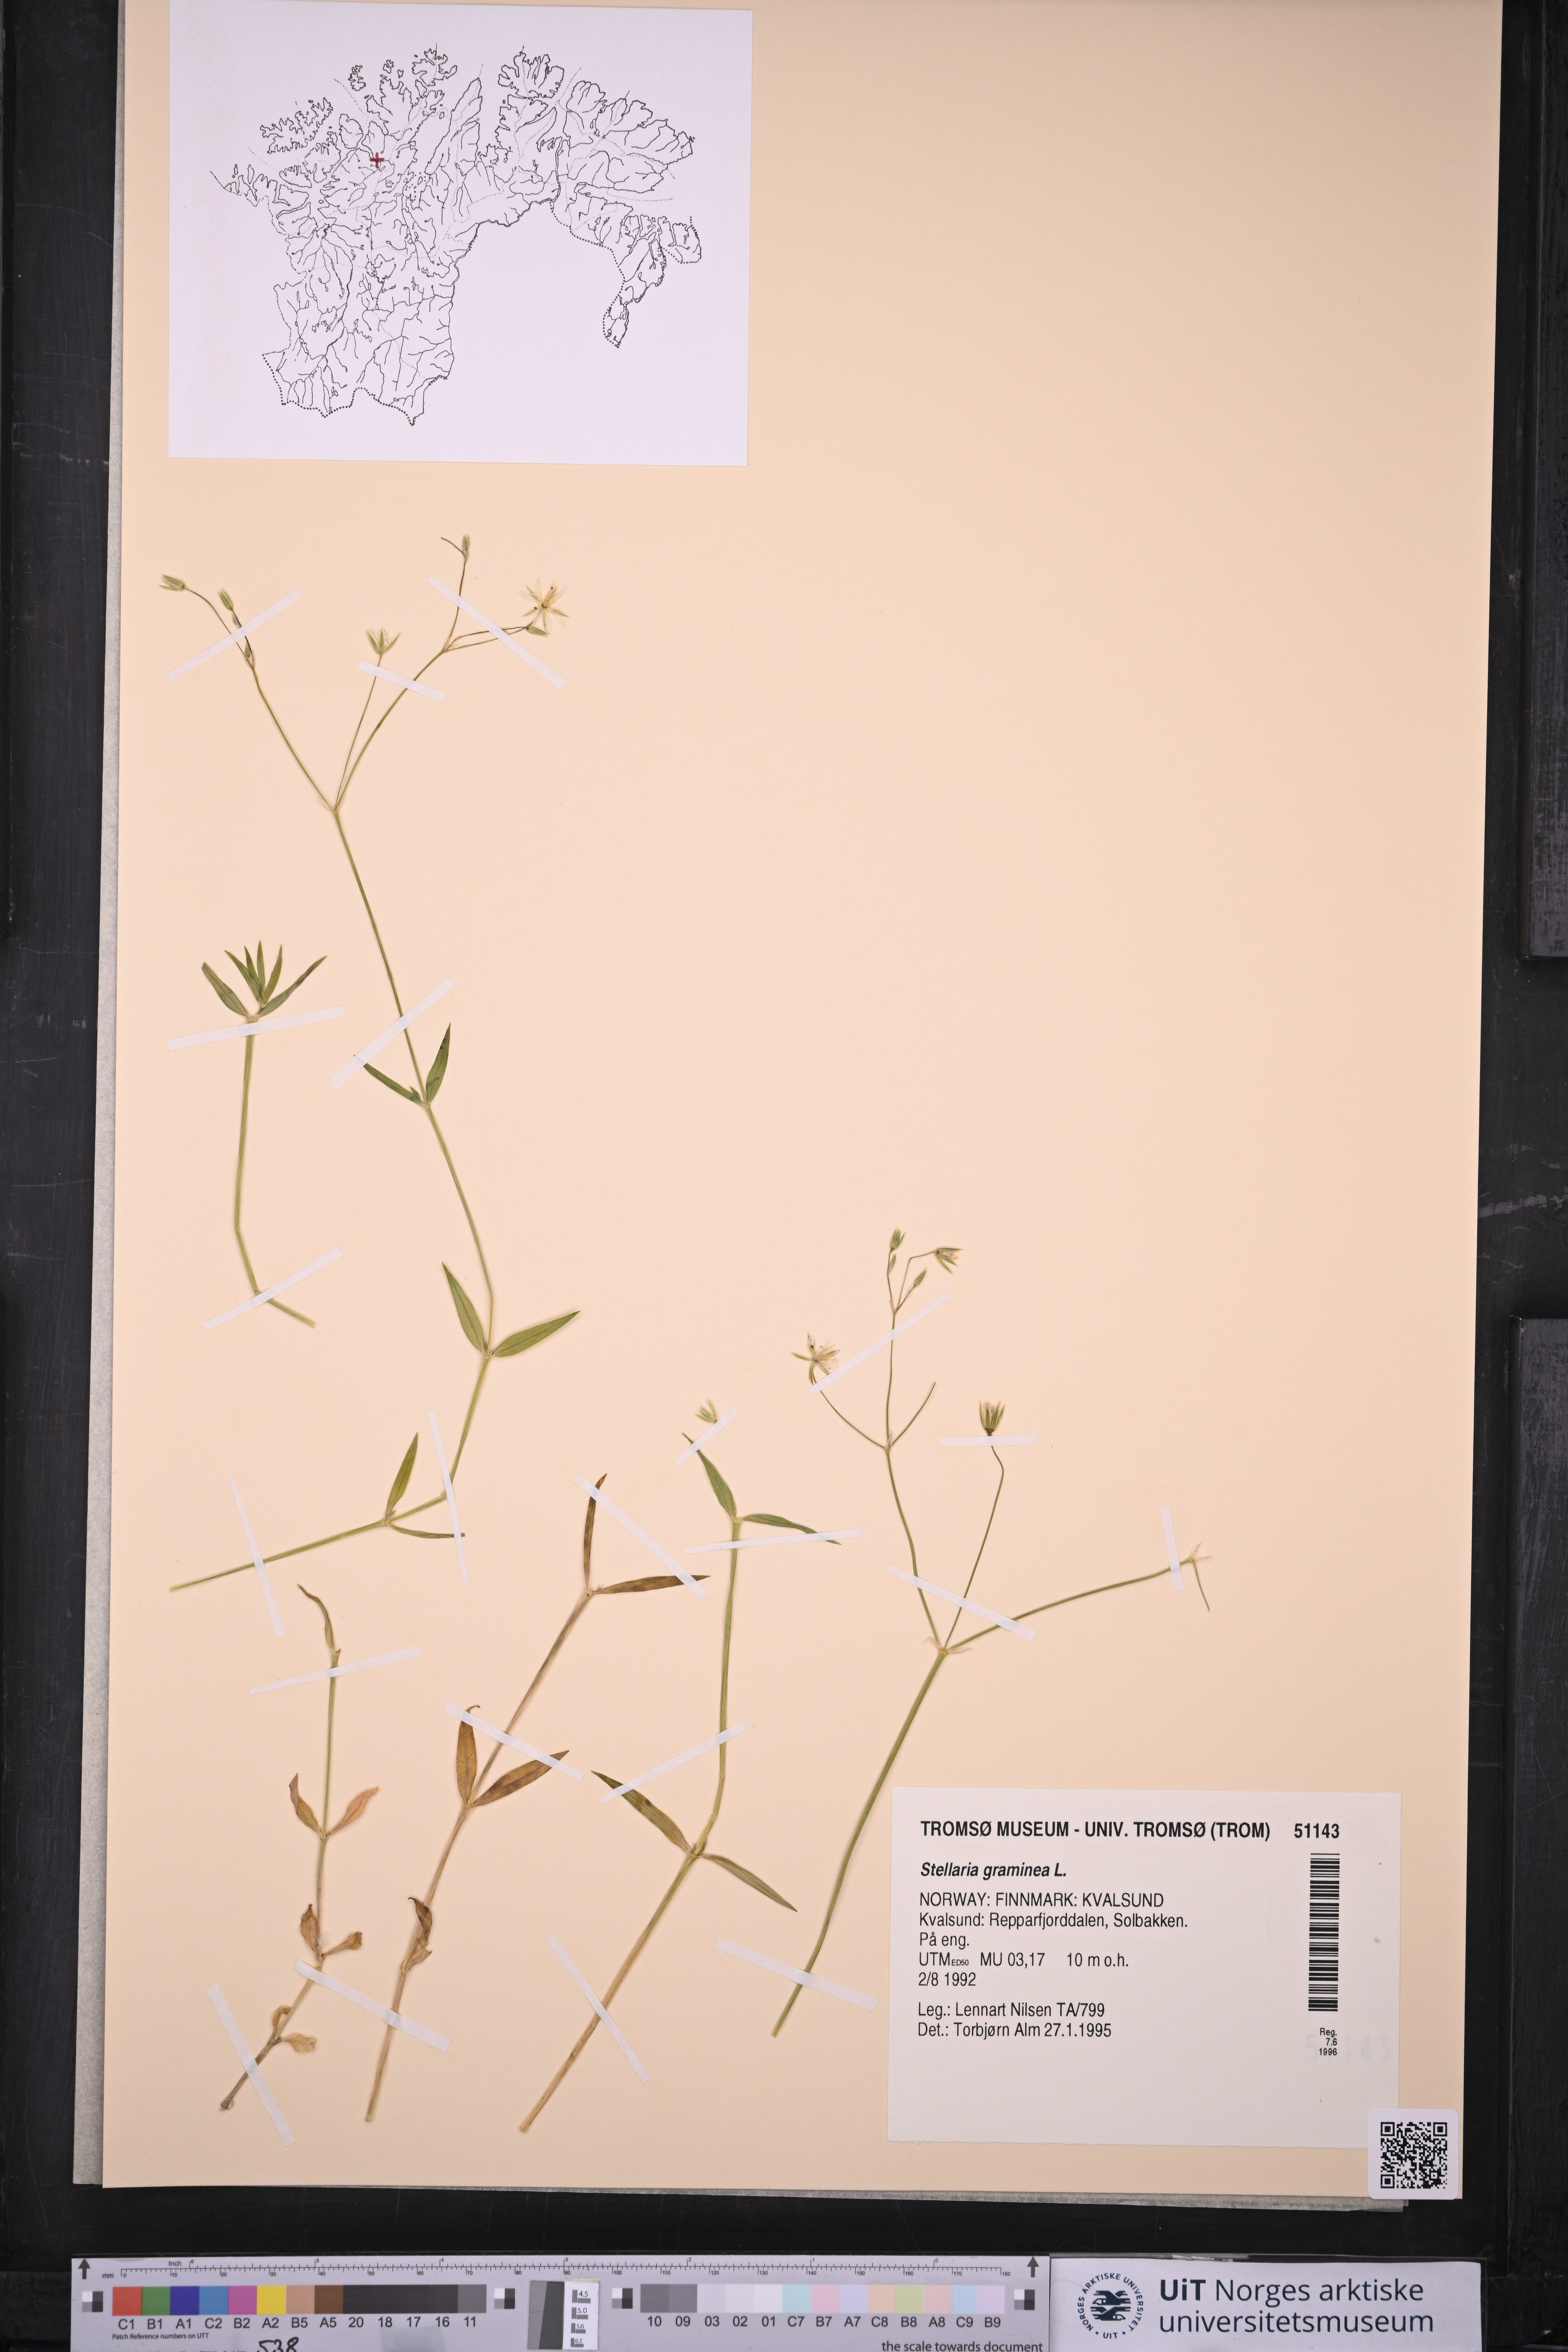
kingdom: Plantae
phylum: Tracheophyta
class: Magnoliopsida
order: Caryophyllales
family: Caryophyllaceae
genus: Stellaria
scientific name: Stellaria graminea
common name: Grass-like starwort
